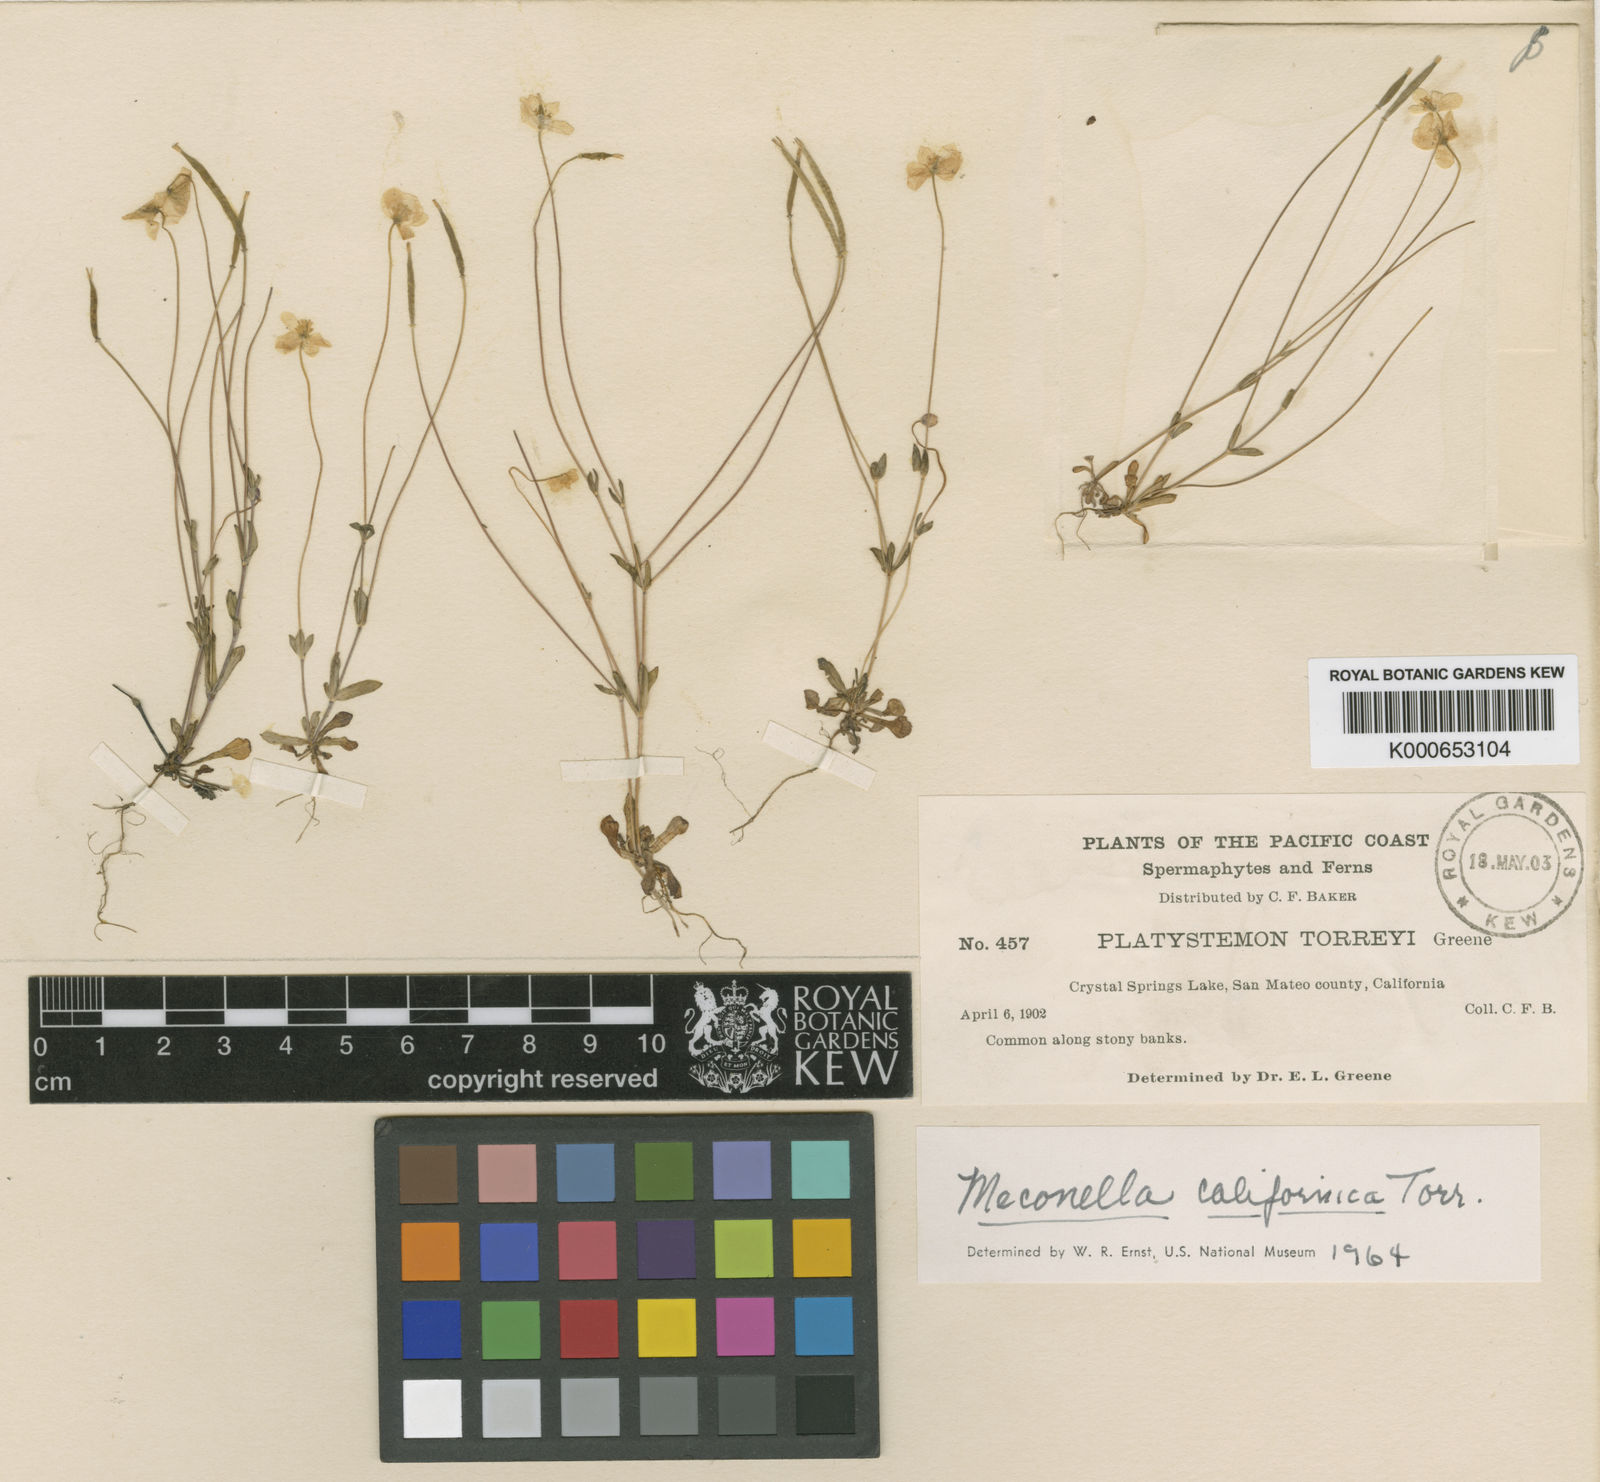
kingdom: Plantae
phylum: Tracheophyta
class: Magnoliopsida
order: Ranunculales
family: Papaveraceae
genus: Meconella
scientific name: Meconella
